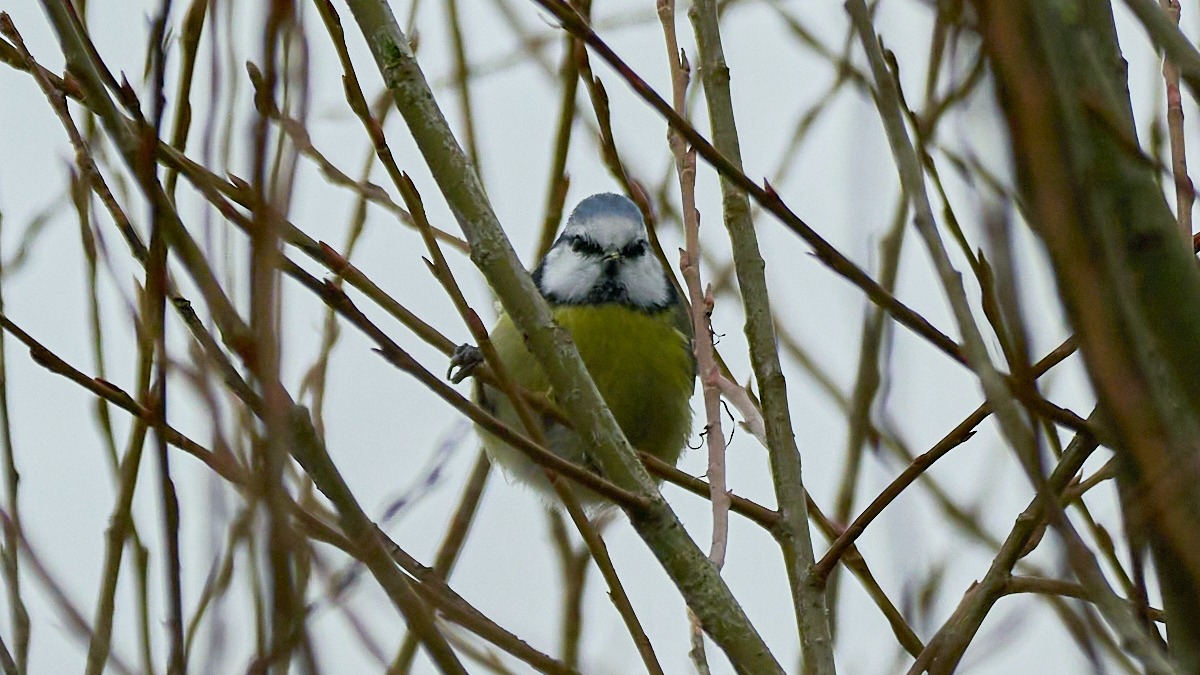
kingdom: Animalia
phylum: Chordata
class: Aves
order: Passeriformes
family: Paridae
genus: Cyanistes
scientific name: Cyanistes caeruleus
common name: Blåmejse
